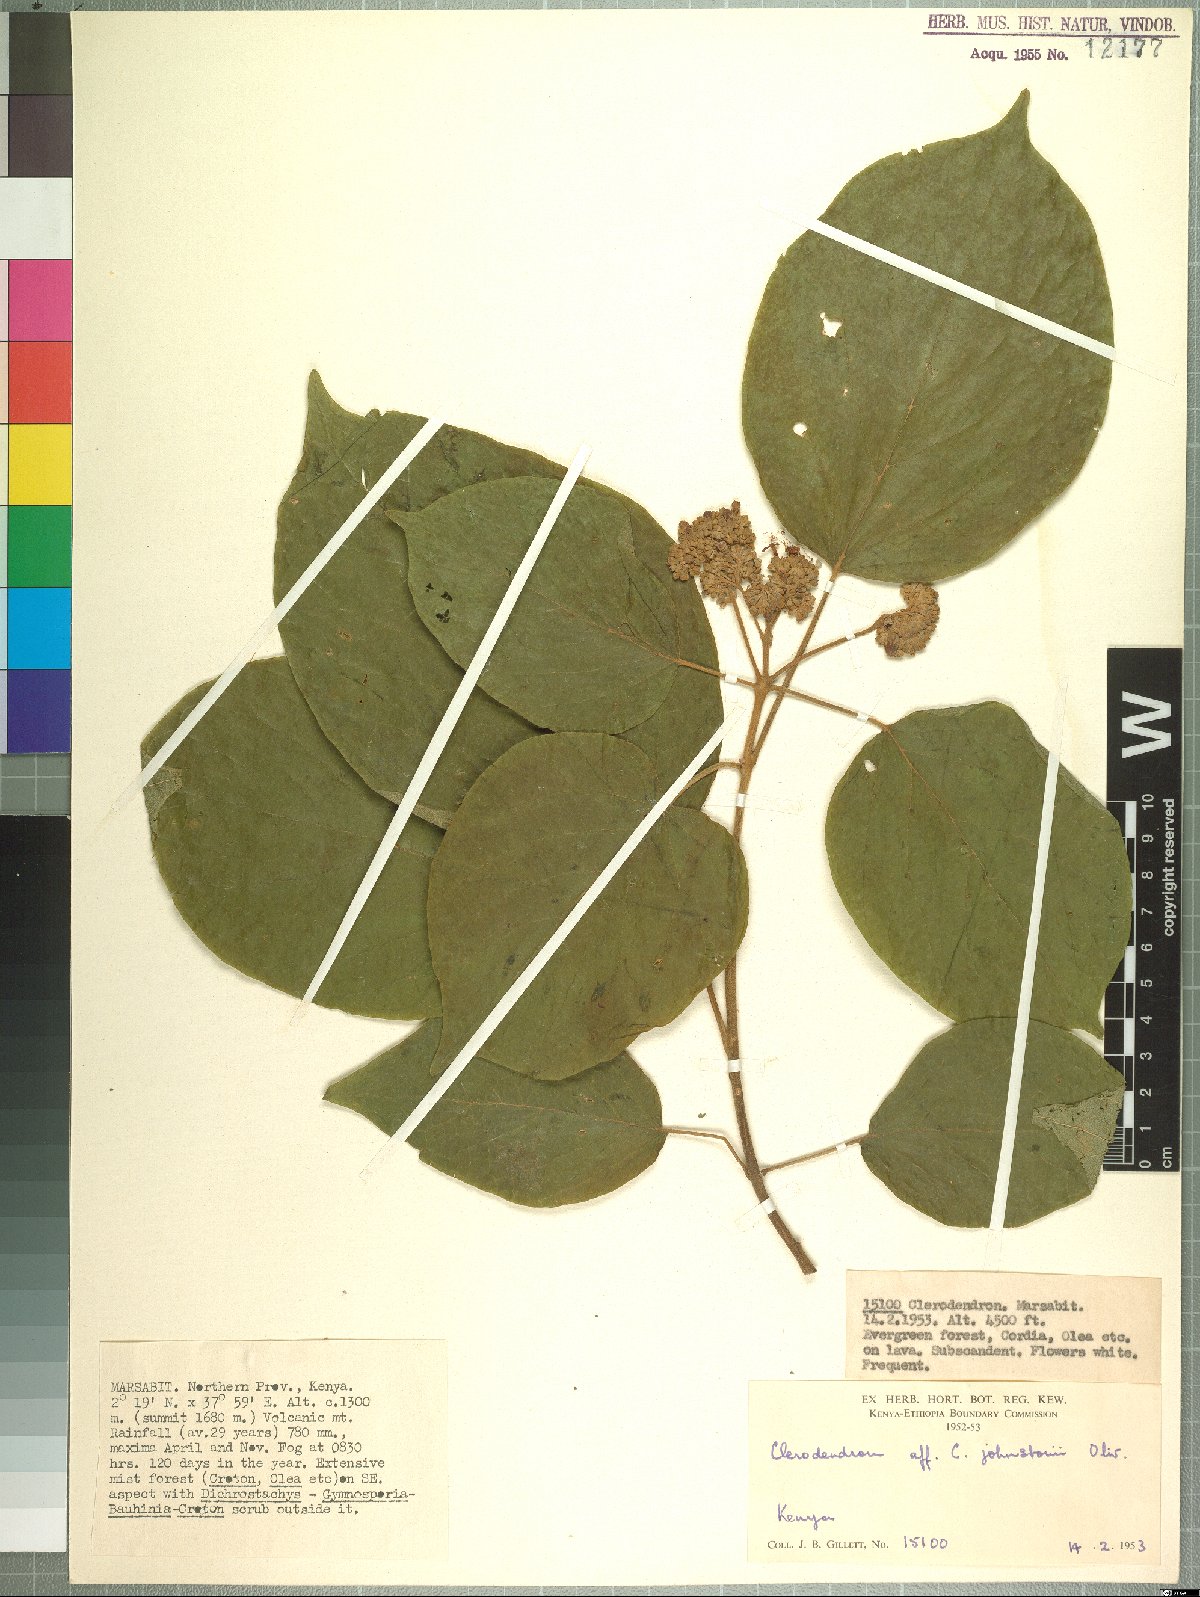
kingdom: Plantae
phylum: Tracheophyta
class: Magnoliopsida
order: Lamiales
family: Lamiaceae
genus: Clerodendrum
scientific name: Clerodendrum johnstonii
